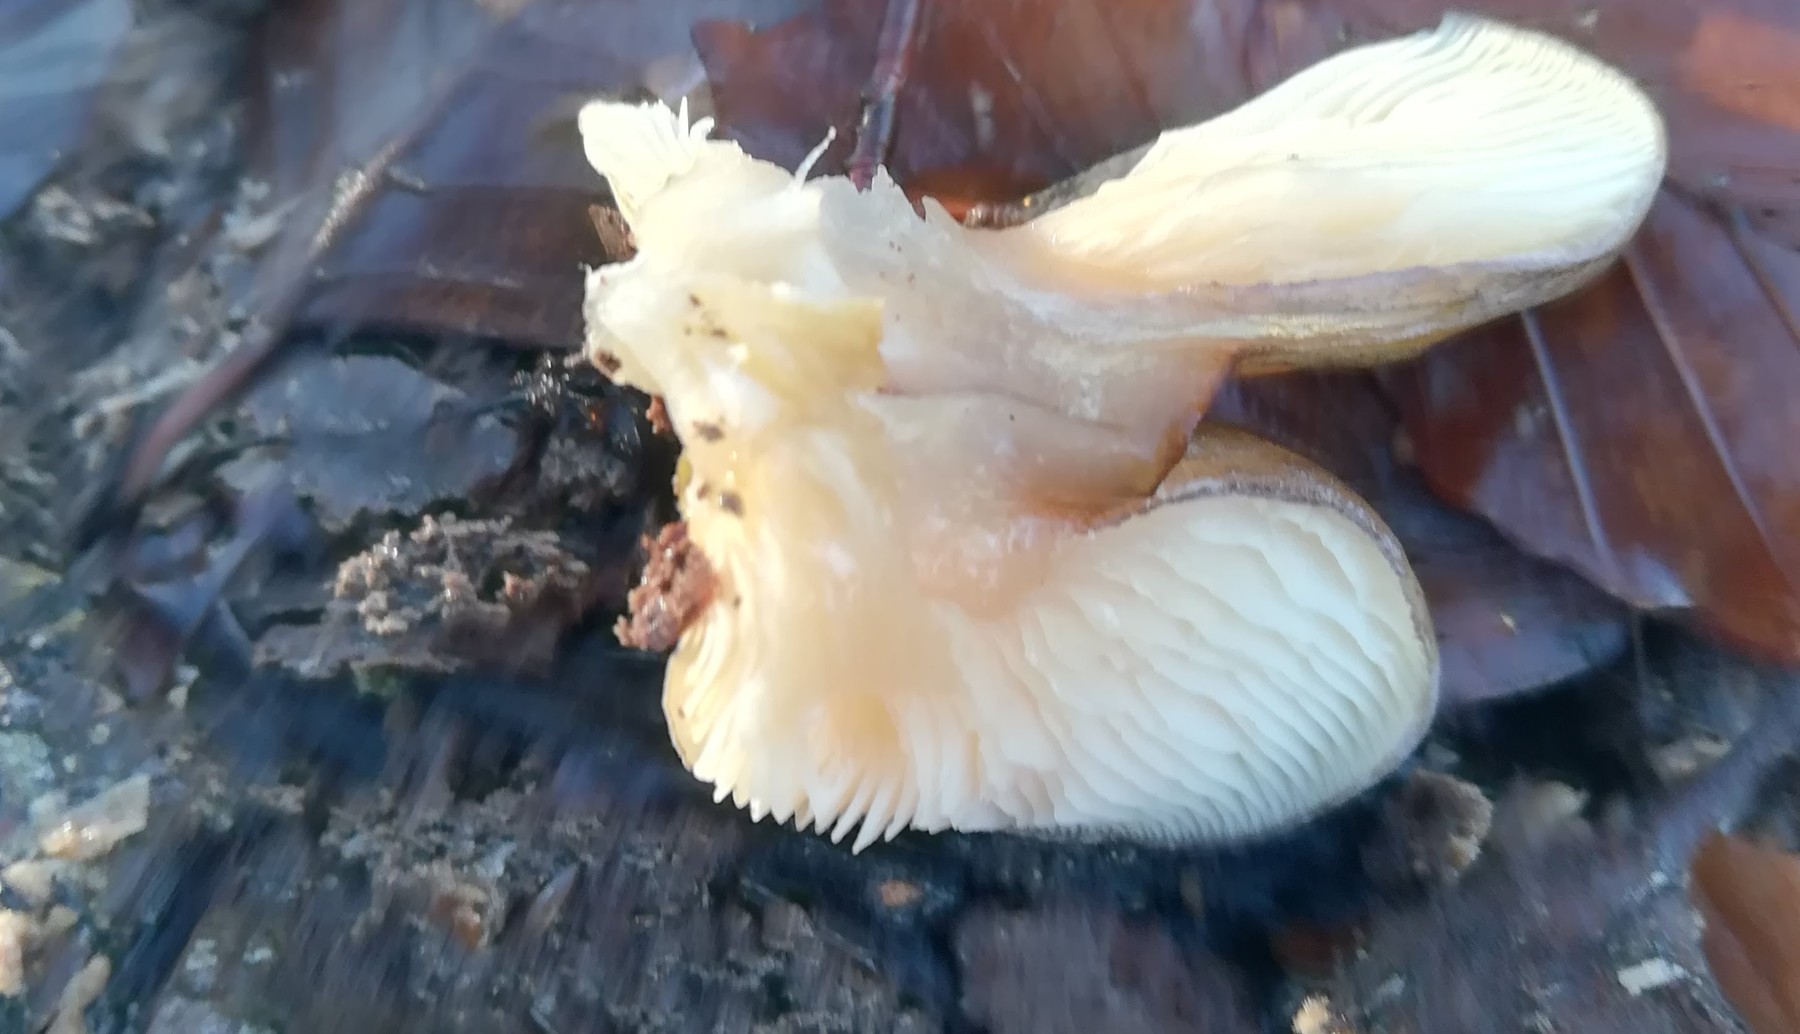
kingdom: Fungi
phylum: Basidiomycota
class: Agaricomycetes
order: Agaricales
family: Sarcomyxaceae
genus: Sarcomyxa
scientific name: Sarcomyxa serotina
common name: gummihat
